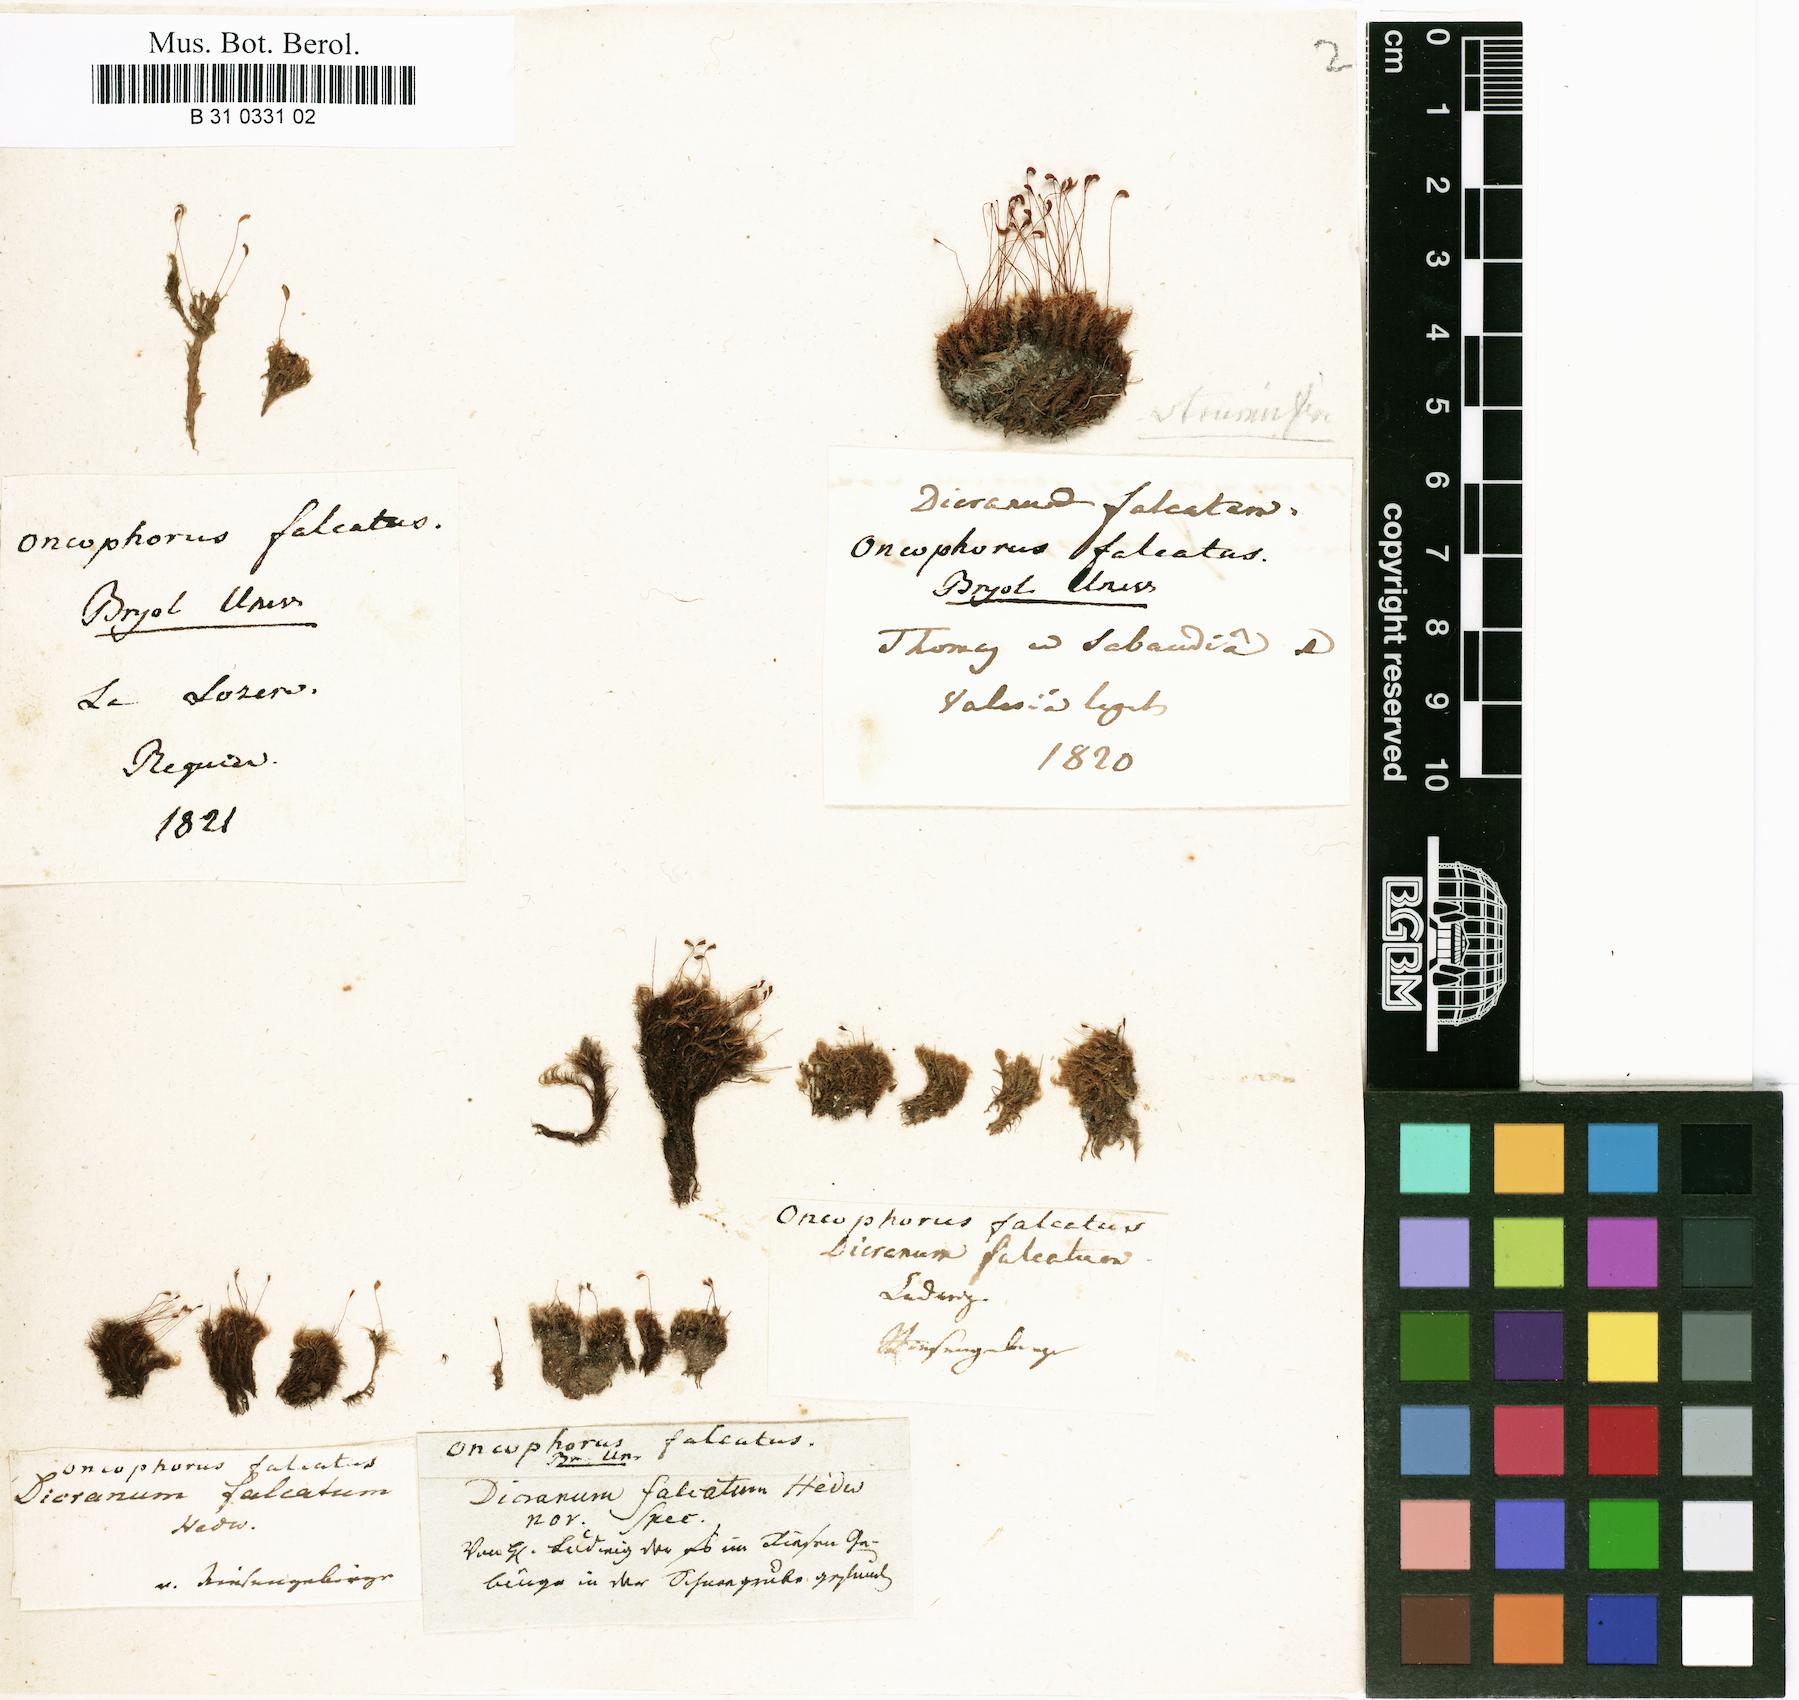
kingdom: Plantae
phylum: Bryophyta
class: Bryopsida
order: Dicranales
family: Rhabdoweisiaceae
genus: Pseudoblindia
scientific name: Pseudoblindia falcata
